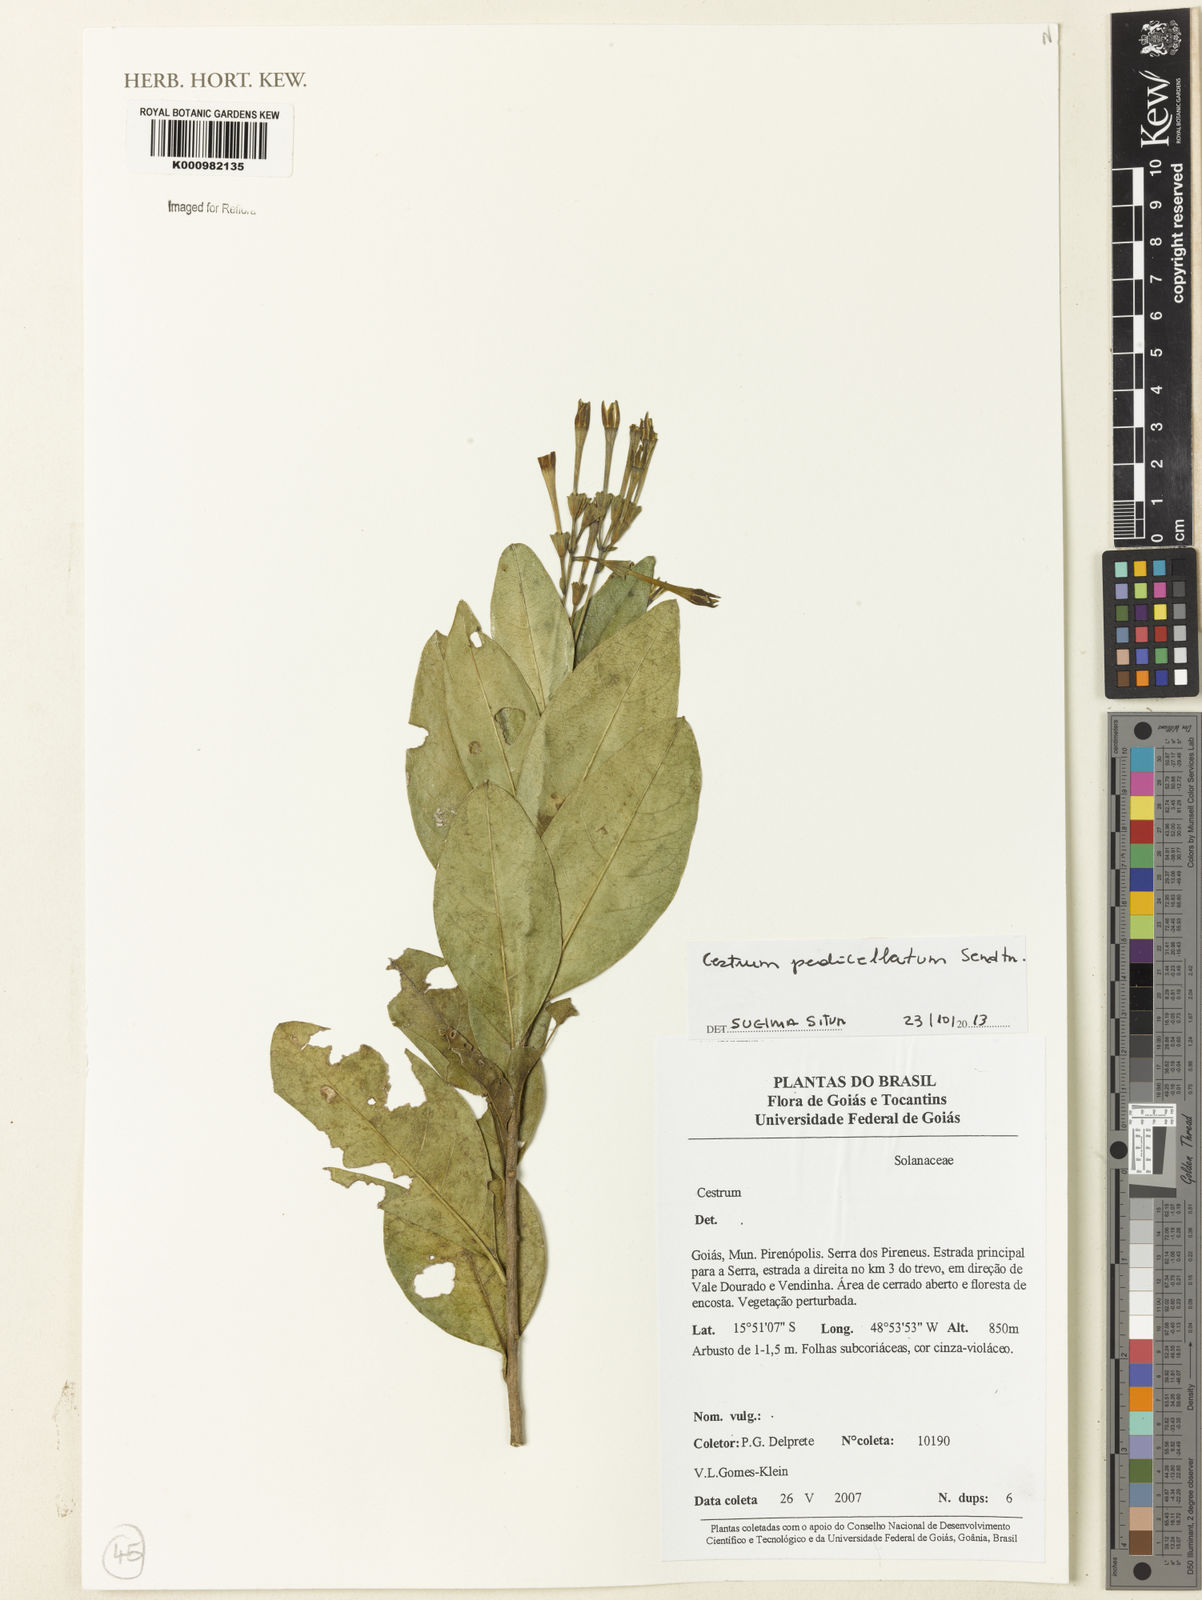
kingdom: Plantae
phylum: Tracheophyta
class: Magnoliopsida
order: Solanales
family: Solanaceae
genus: Cestrum
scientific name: Cestrum pedicellatum
